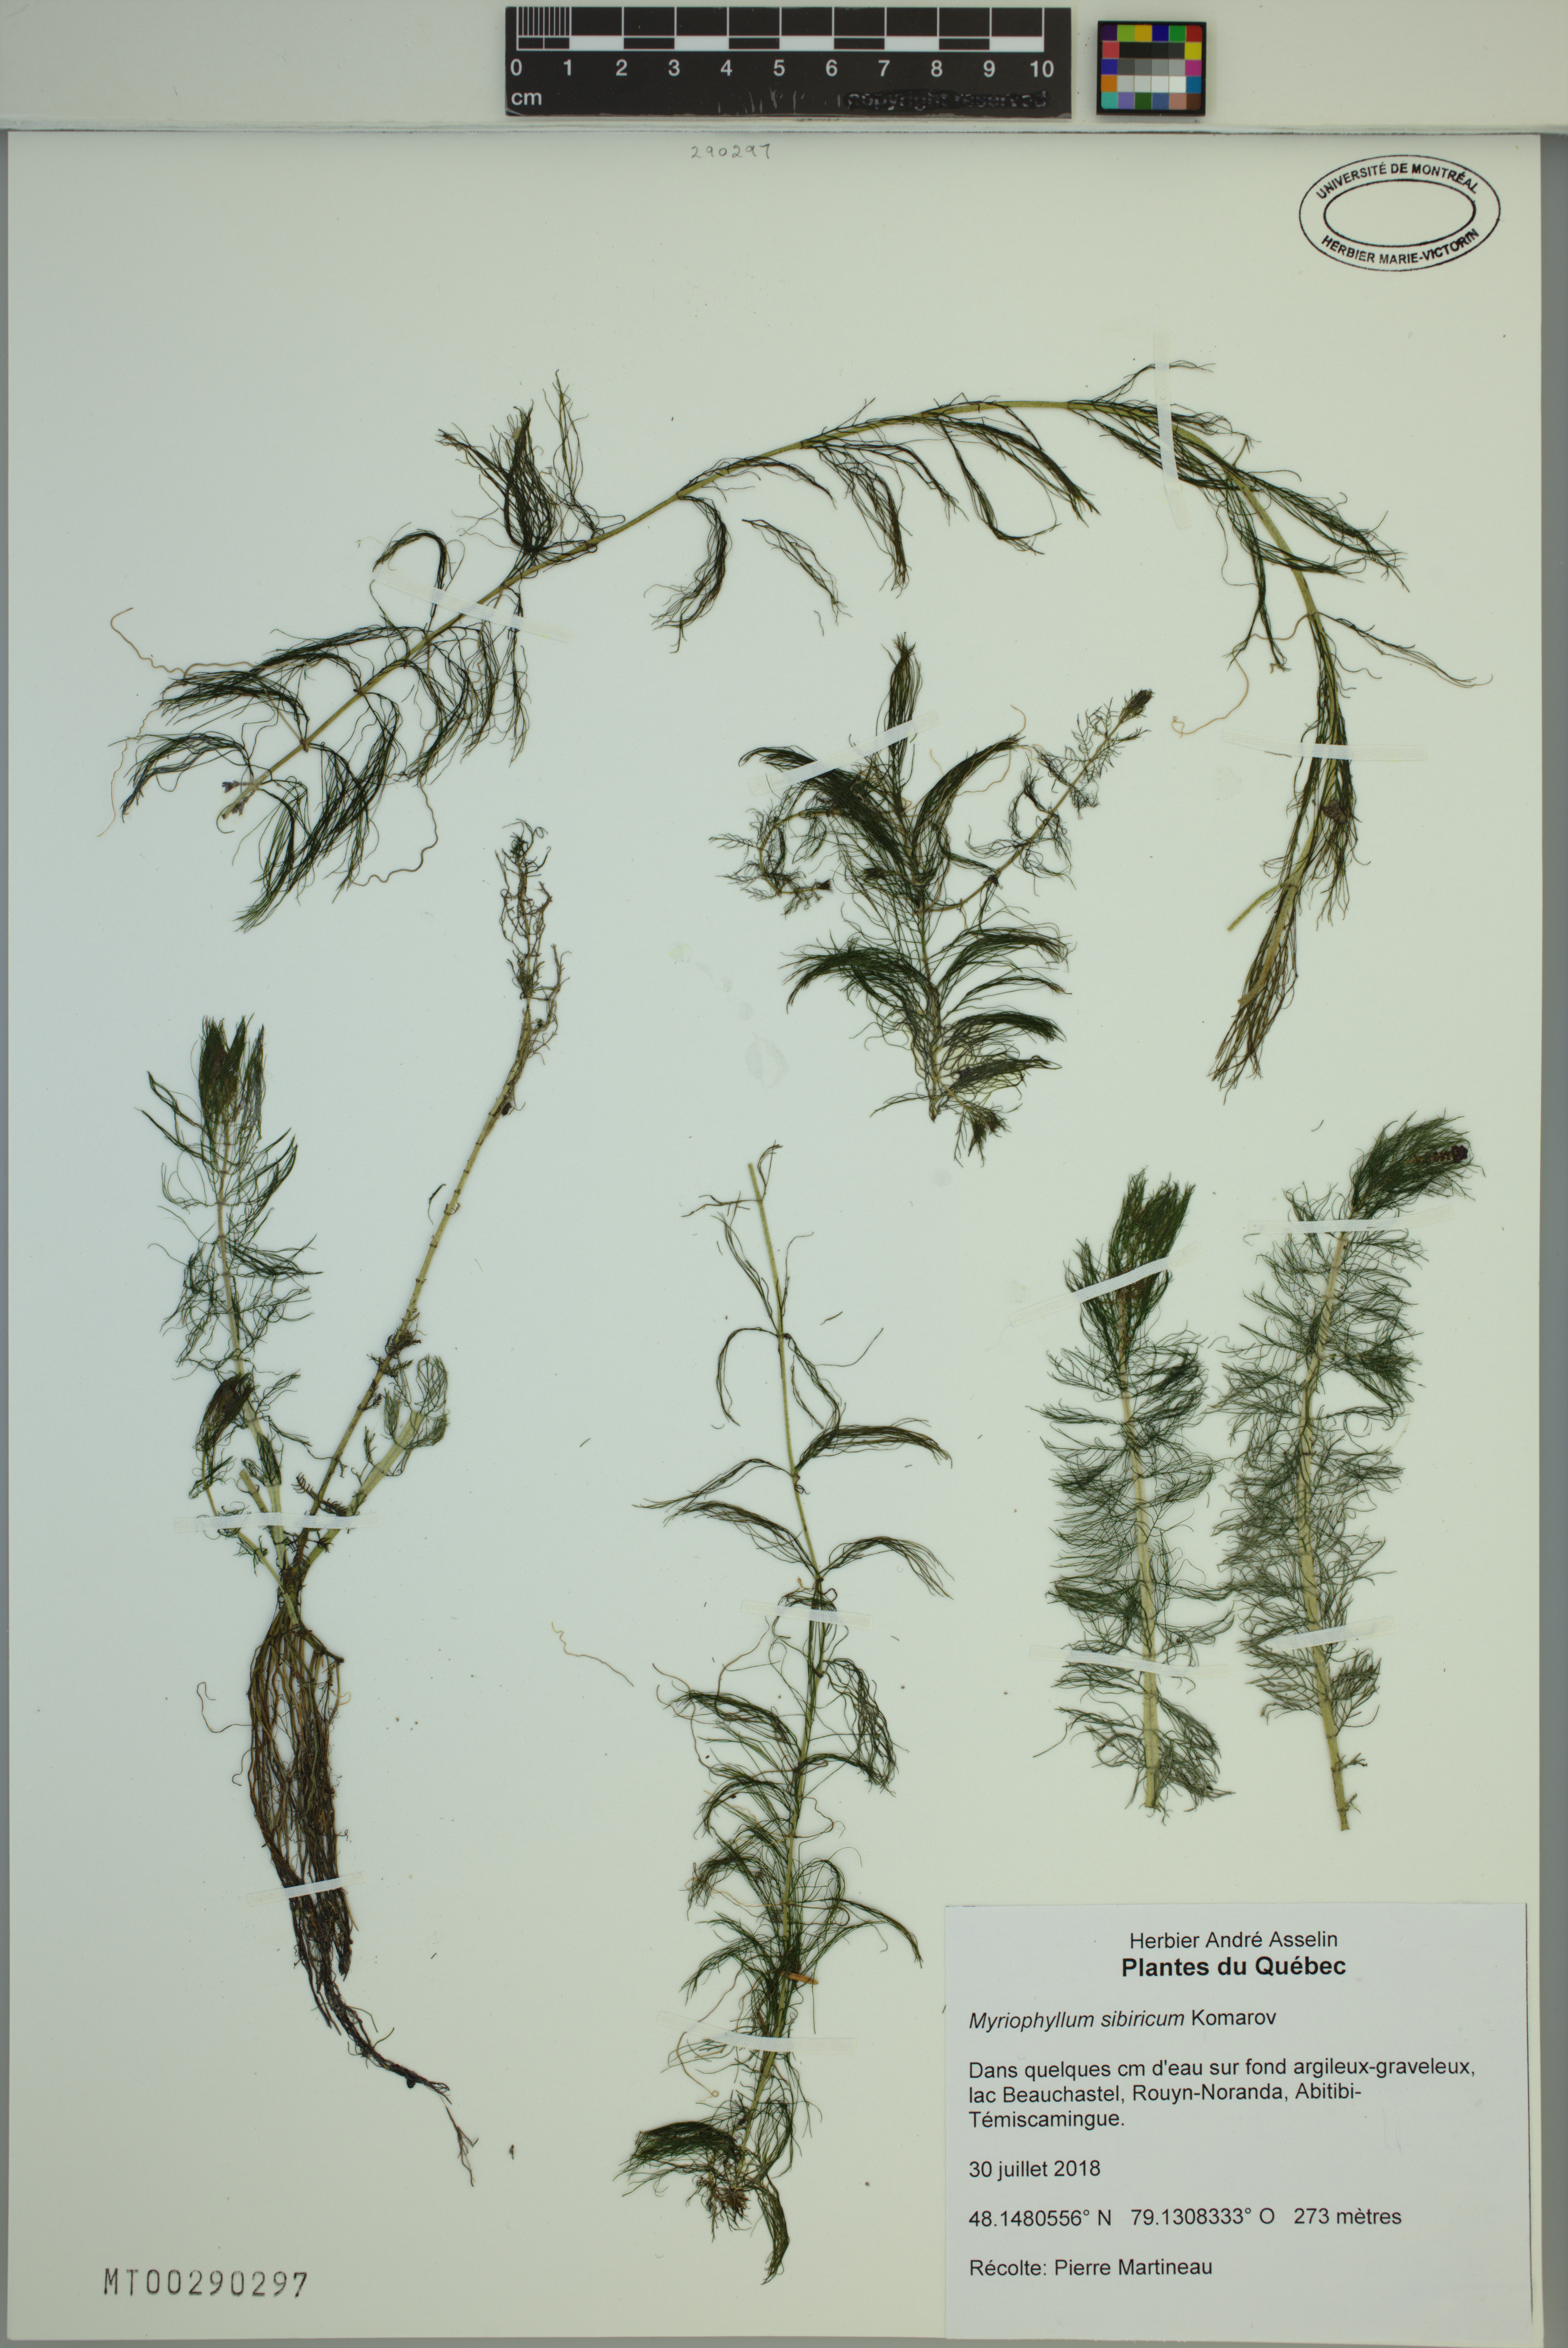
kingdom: Plantae
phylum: Tracheophyta
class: Magnoliopsida
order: Saxifragales
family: Haloragaceae
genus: Myriophyllum
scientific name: Myriophyllum sibiricum
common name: Siberian water-milfoil
